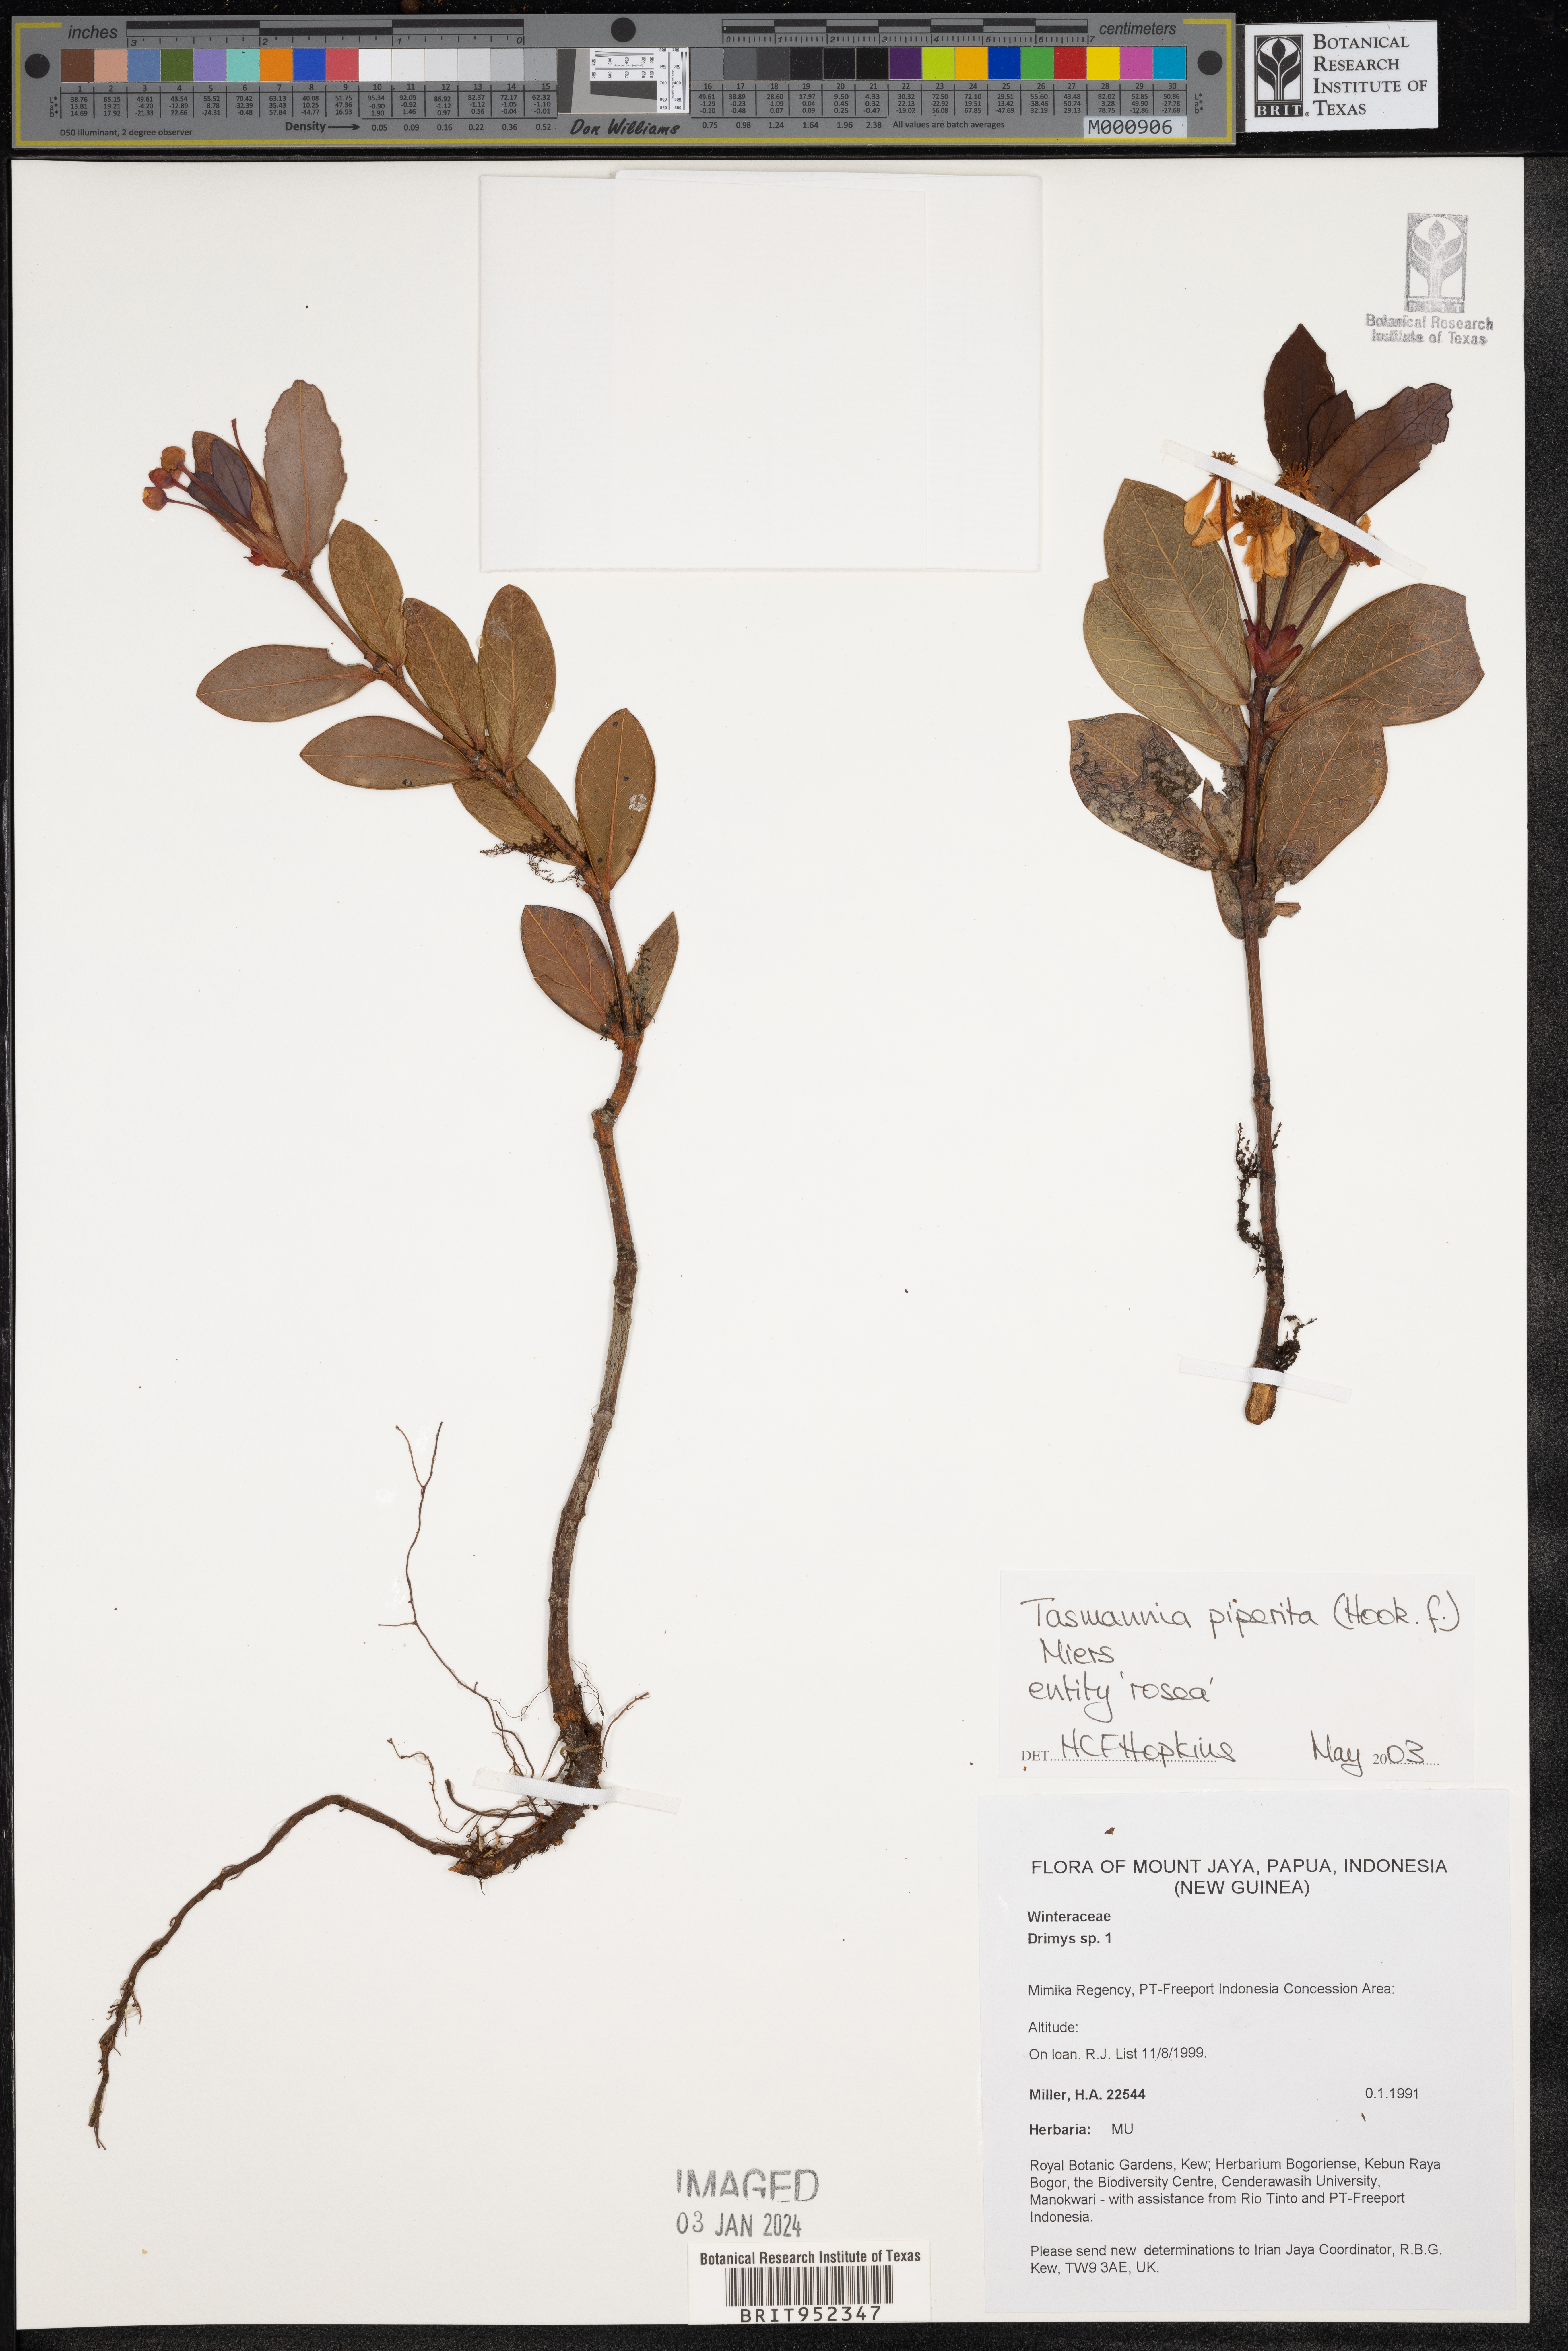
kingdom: Plantae
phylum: Tracheophyta
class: Magnoliopsida
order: Canellales
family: Winteraceae
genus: Drimys
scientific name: Drimys
